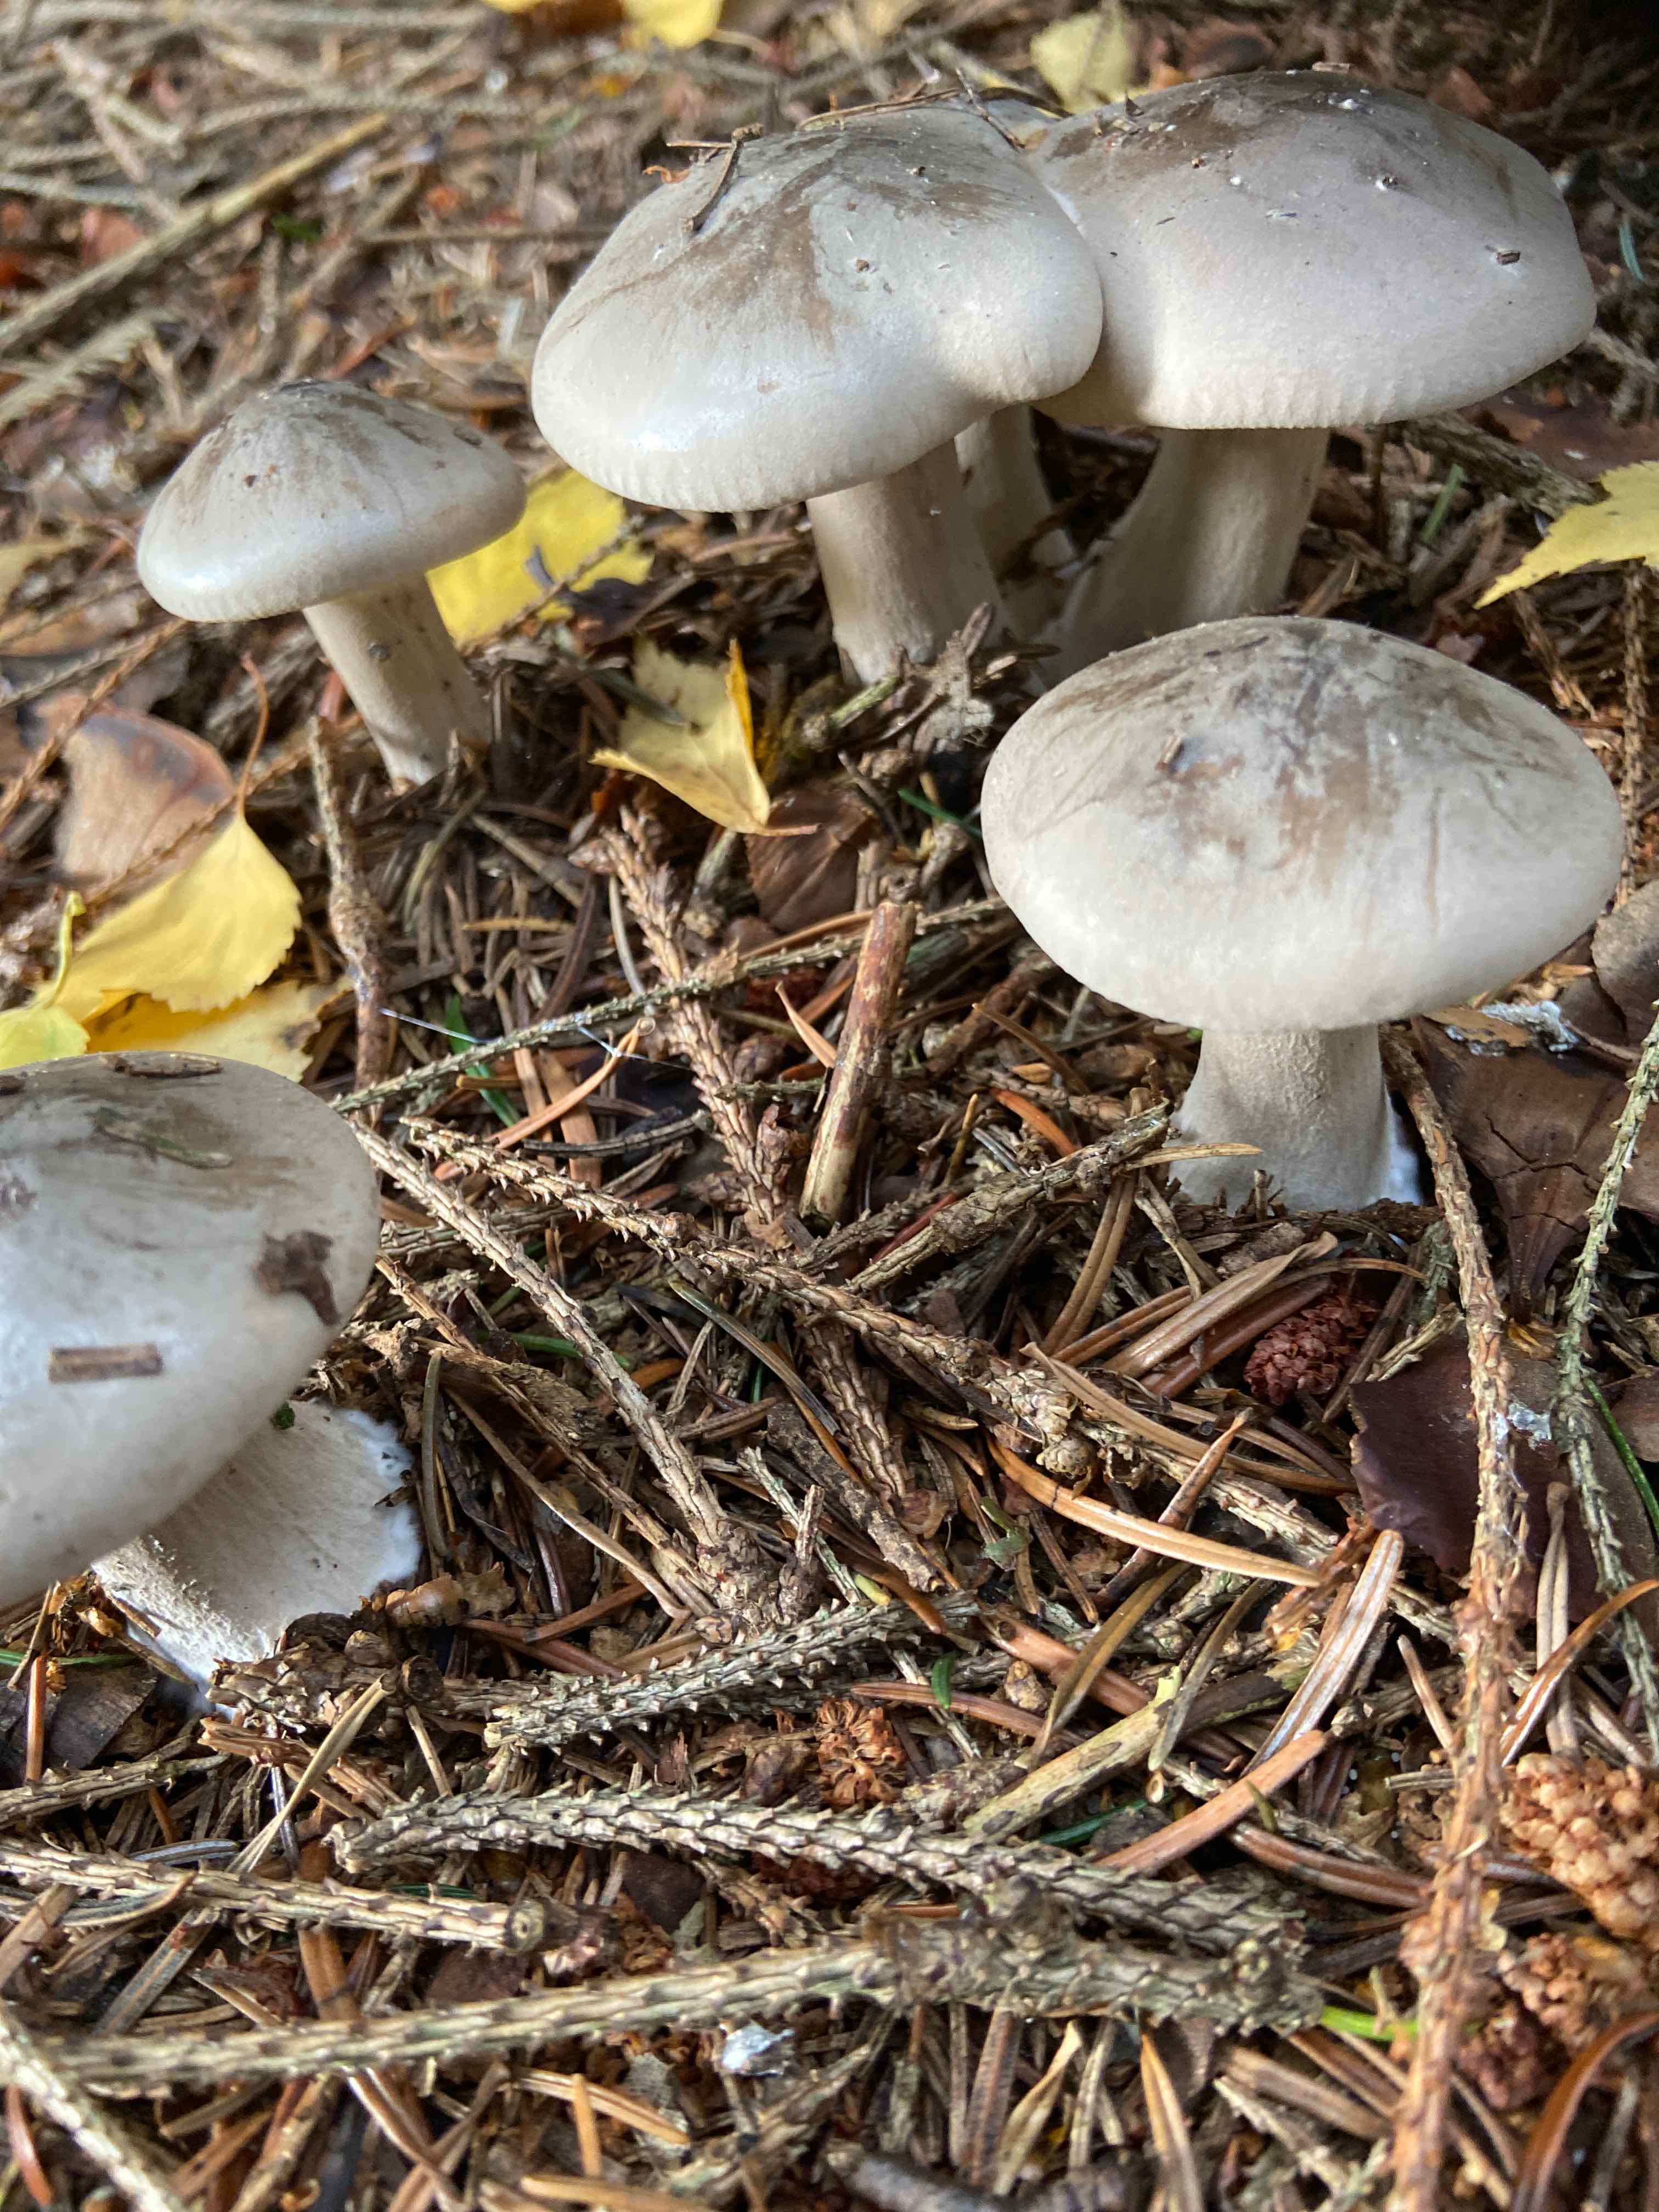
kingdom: Fungi
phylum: Basidiomycota
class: Agaricomycetes
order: Agaricales
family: Tricholomataceae
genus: Clitocybe
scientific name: Clitocybe nebularis
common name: tåge-tragthat
